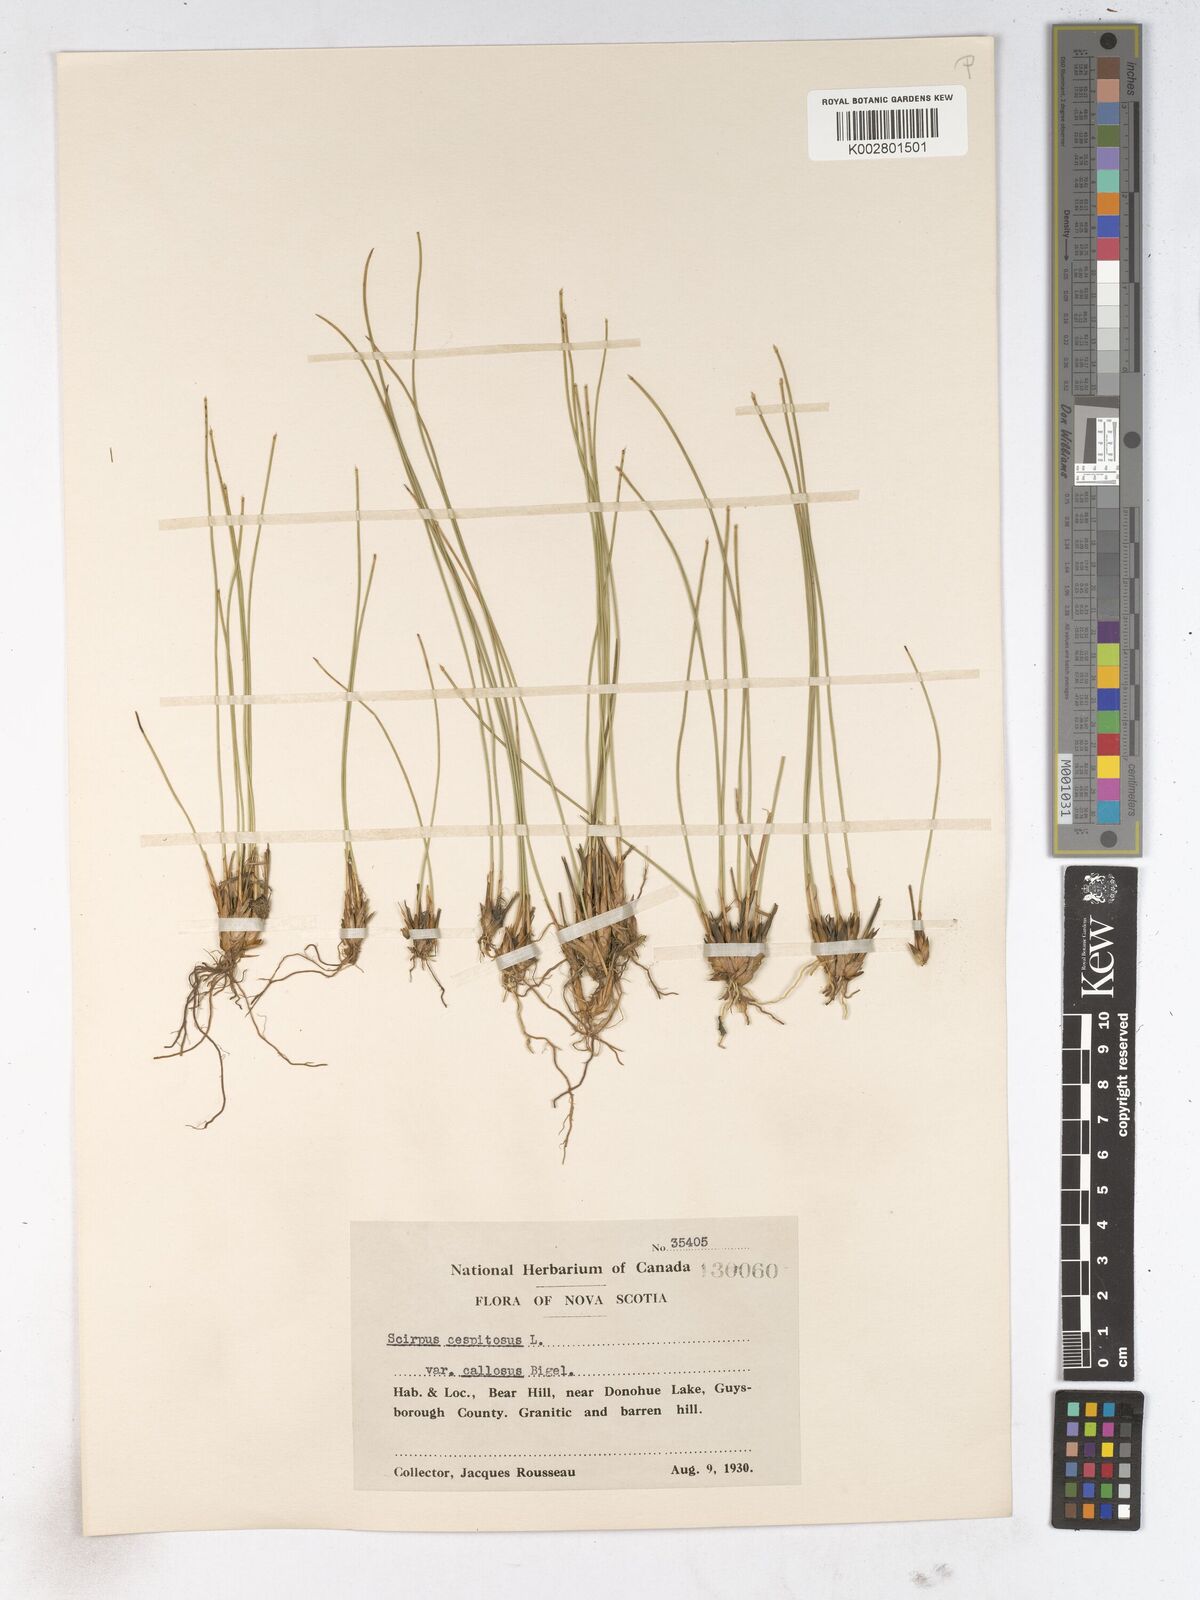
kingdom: Plantae
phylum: Tracheophyta
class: Liliopsida
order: Poales
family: Cyperaceae
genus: Trichophorum
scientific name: Trichophorum cespitosum
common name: Cespitose bulrush
